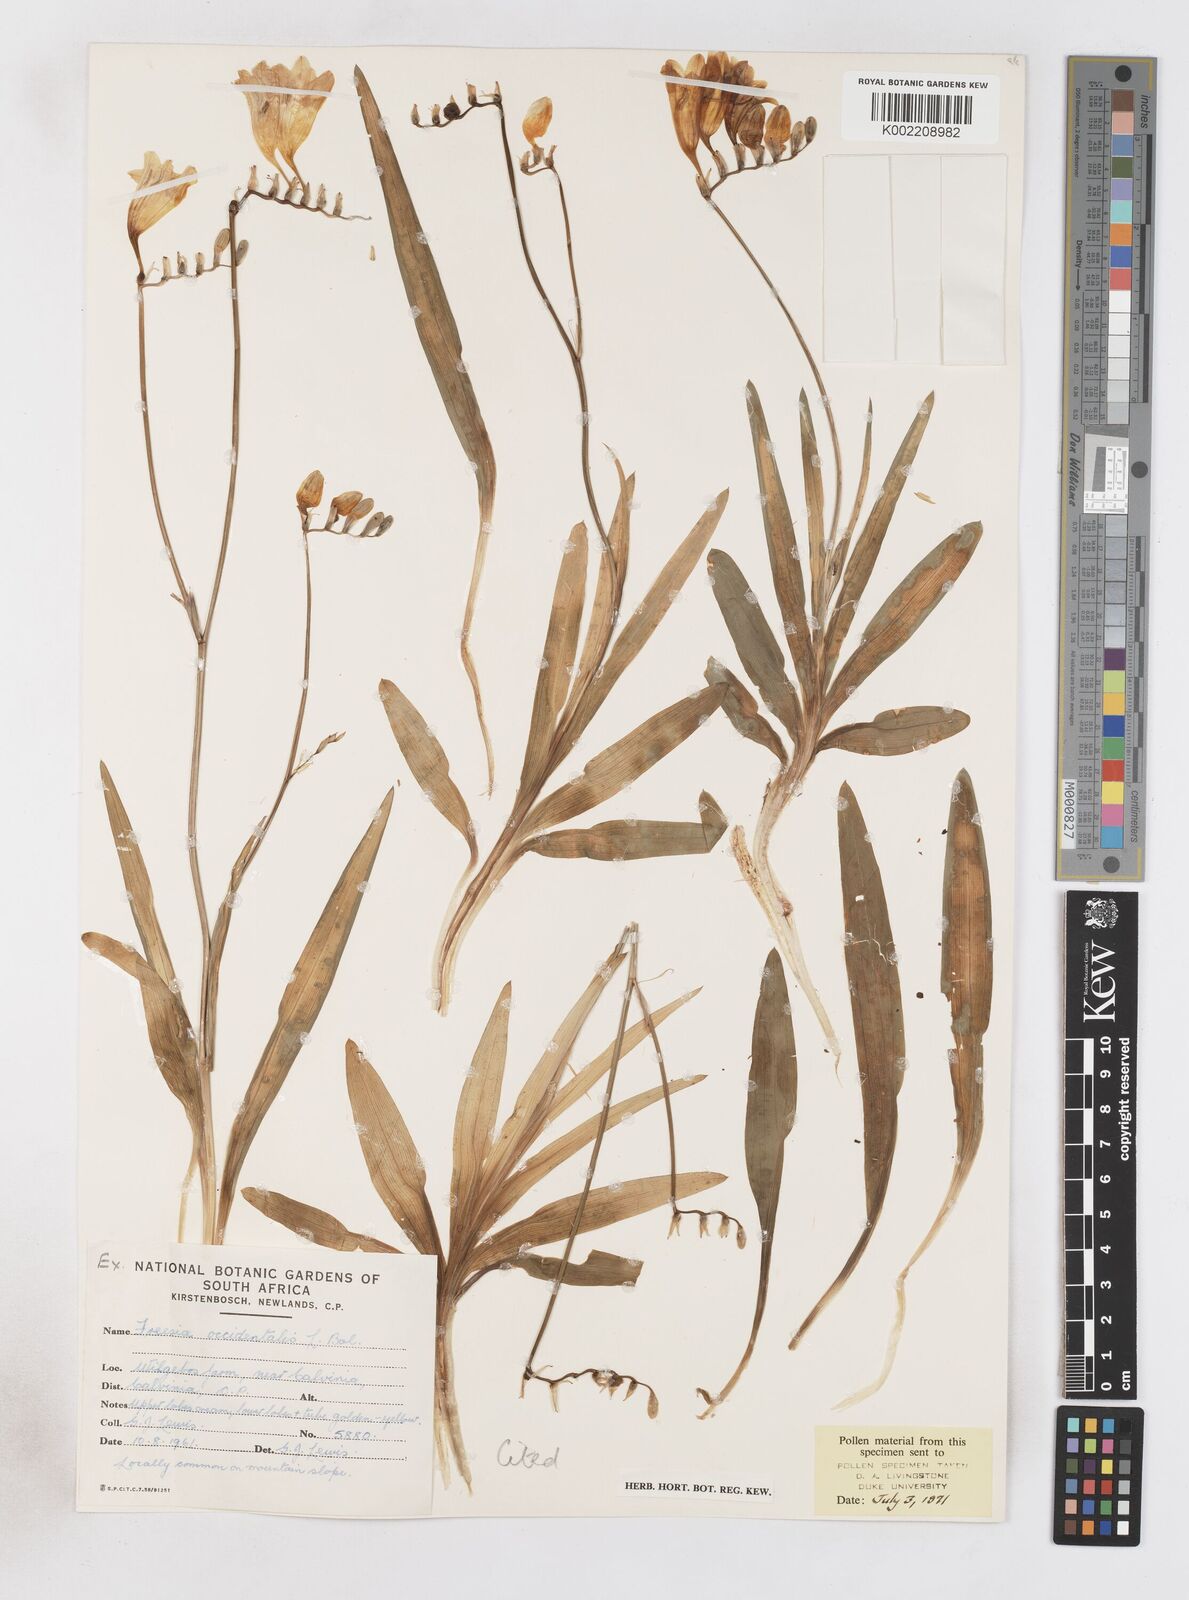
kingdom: Plantae
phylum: Tracheophyta
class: Liliopsida
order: Asparagales
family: Iridaceae
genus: Freesia
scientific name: Freesia occidentalis
